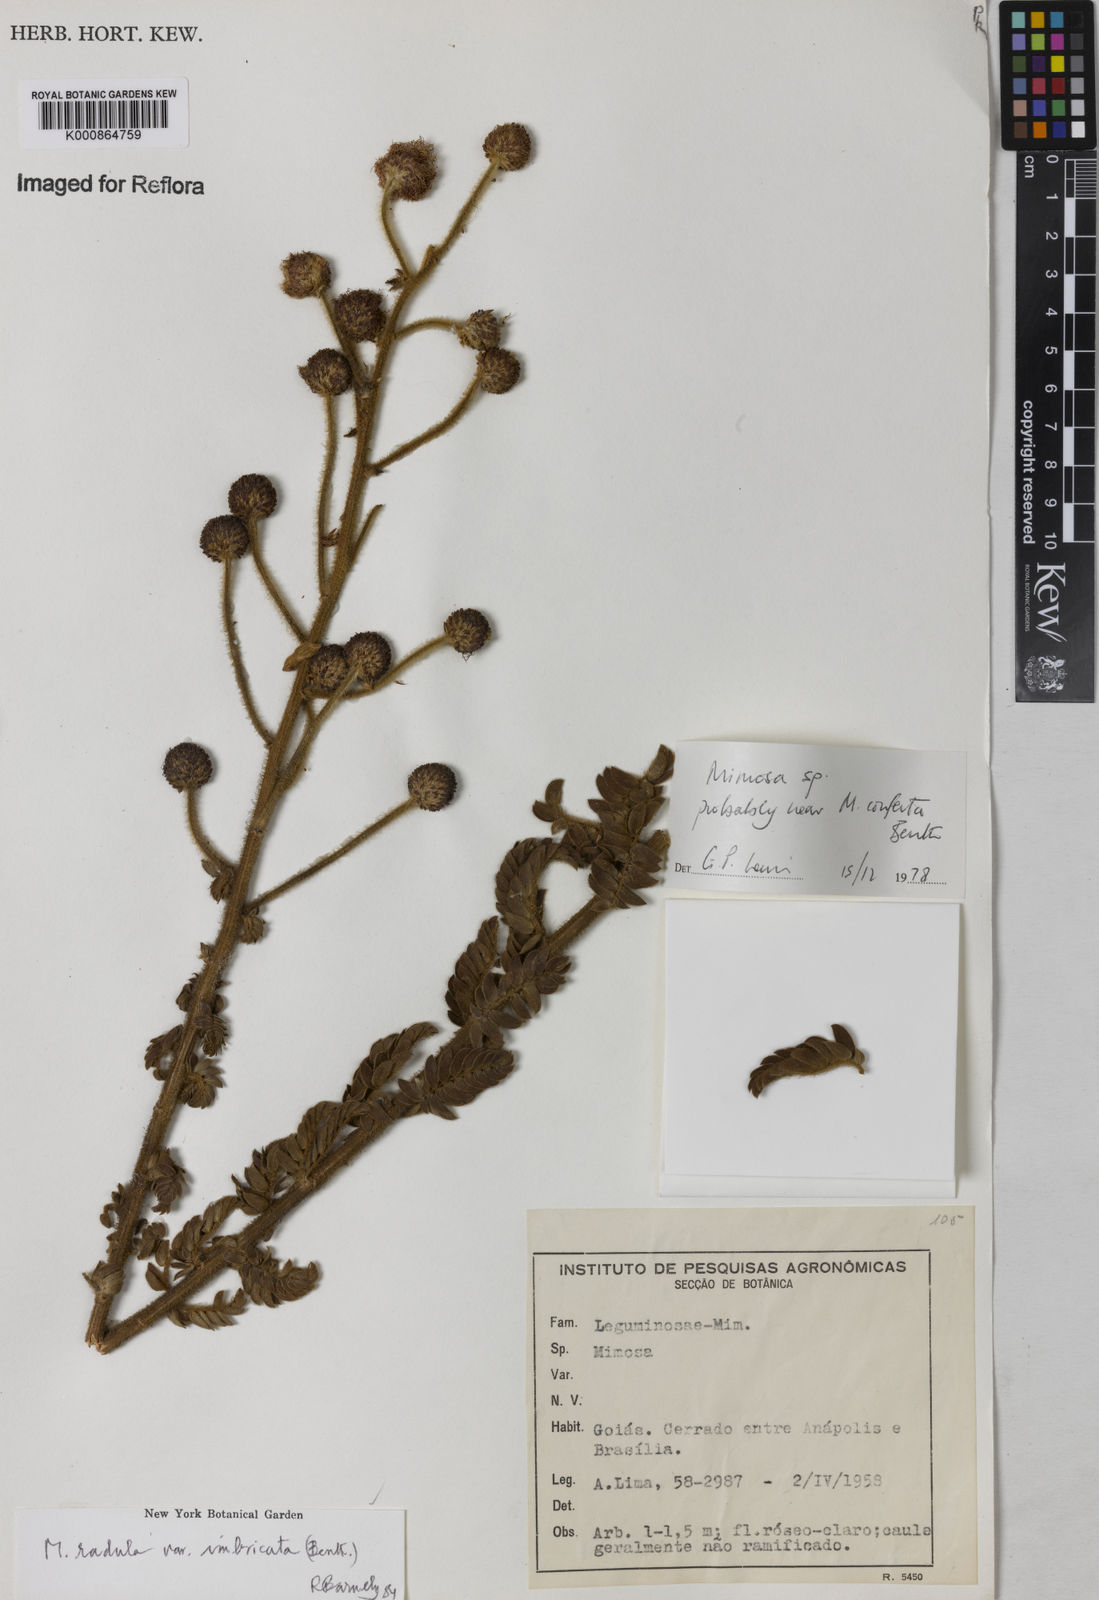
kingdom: Plantae
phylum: Tracheophyta
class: Magnoliopsida
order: Fabales
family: Fabaceae
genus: Mimosa
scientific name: Mimosa radula
